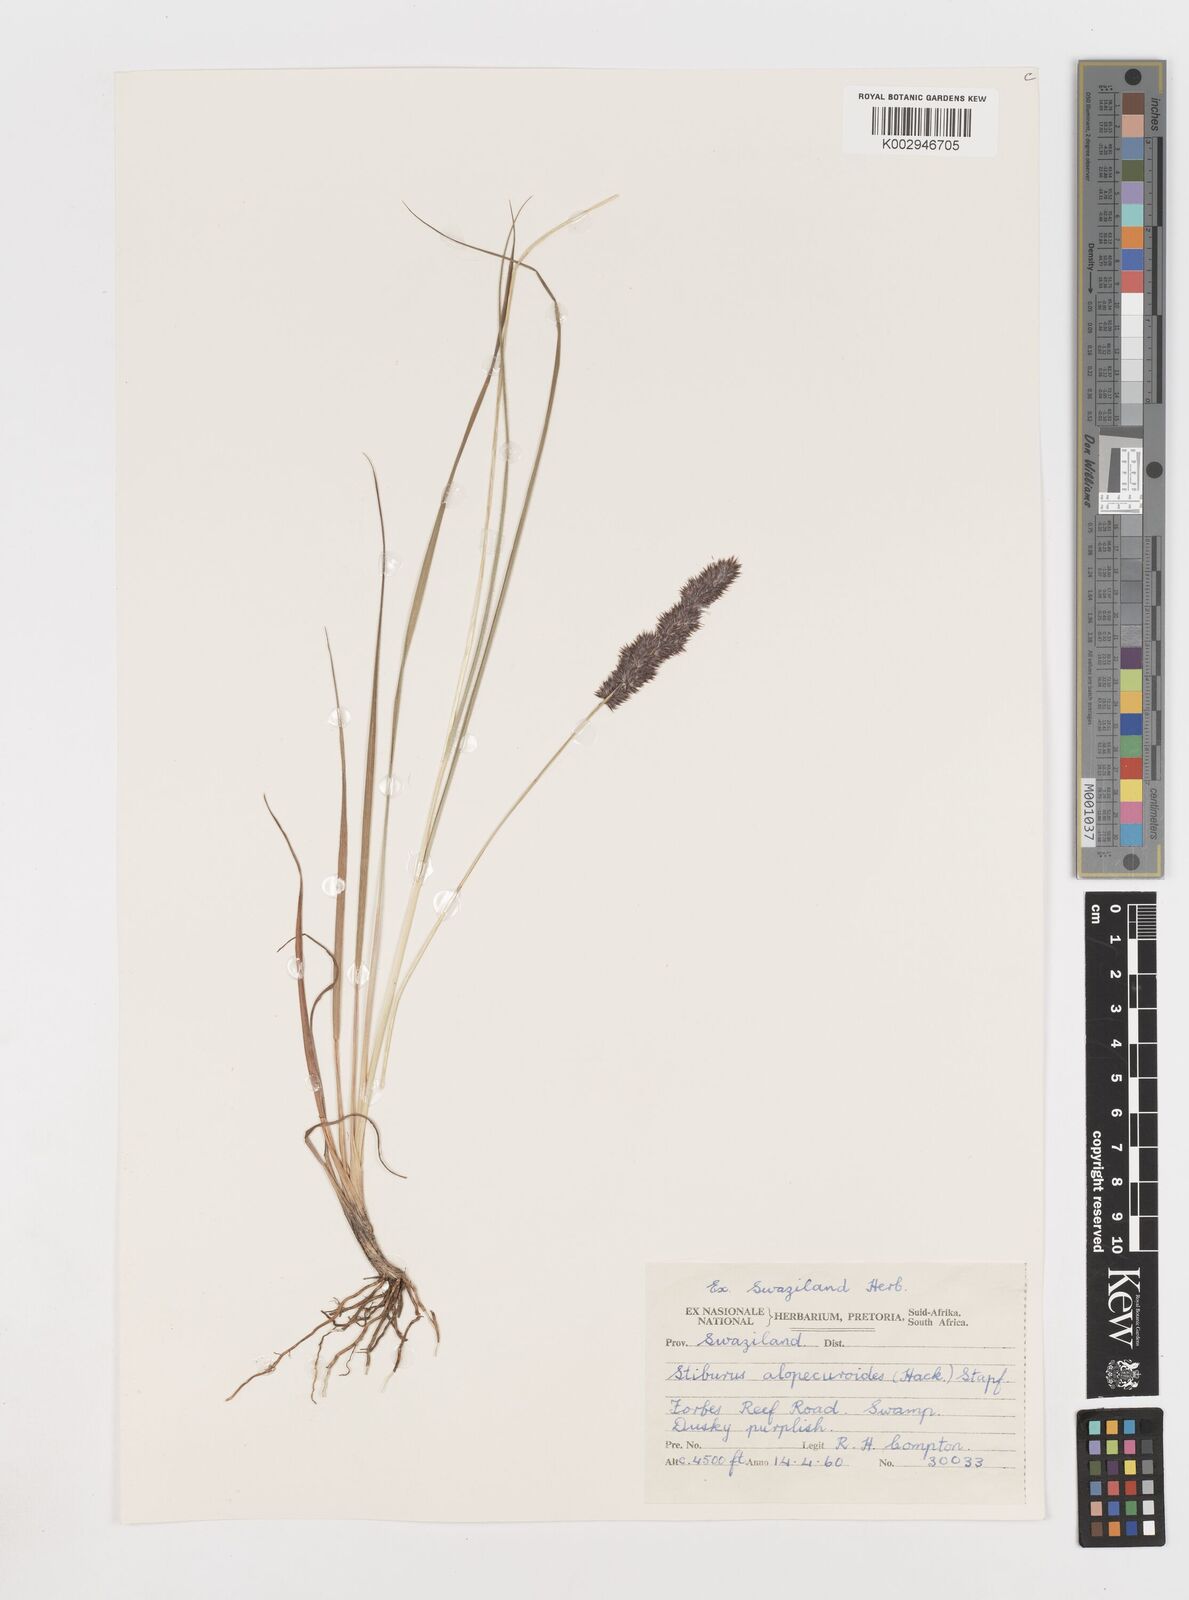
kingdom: Plantae
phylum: Tracheophyta
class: Liliopsida
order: Poales
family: Poaceae
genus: Stiburus
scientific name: Stiburus alopecuroides
